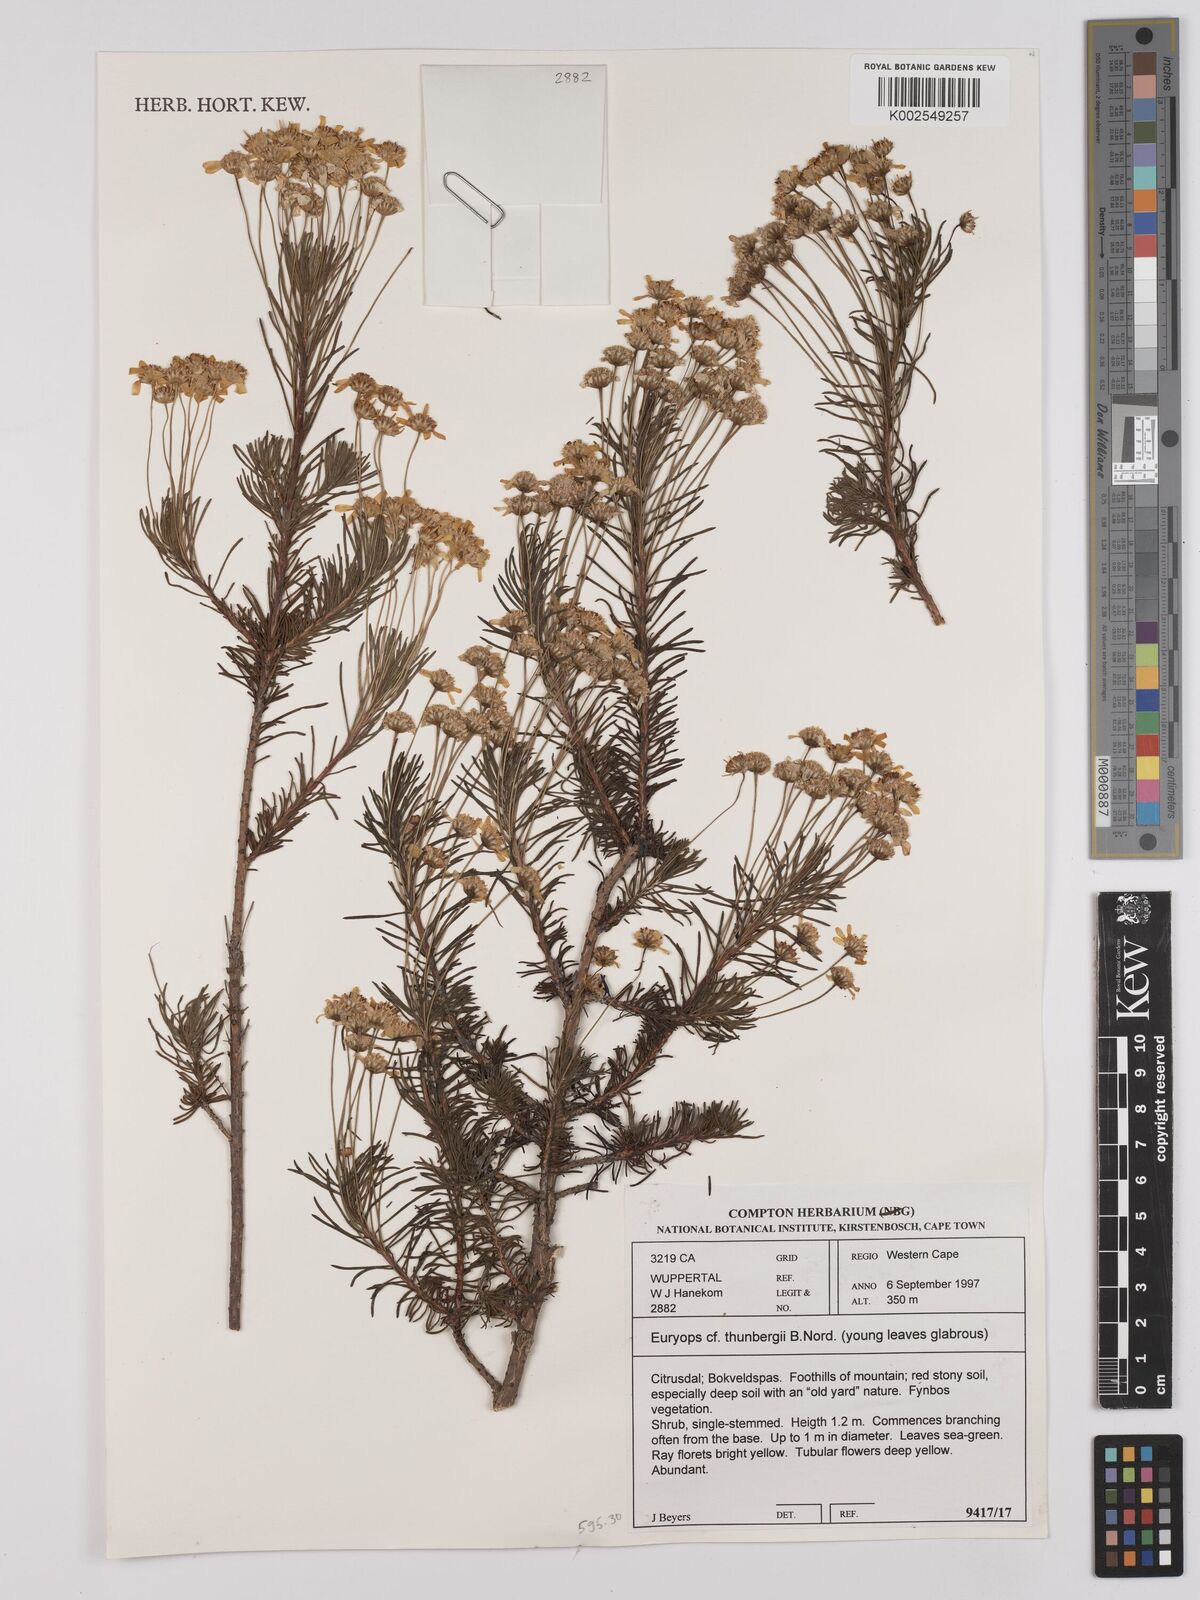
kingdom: Plantae
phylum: Tracheophyta
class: Magnoliopsida
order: Asterales
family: Asteraceae
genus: Euryops
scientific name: Euryops thunbergii
